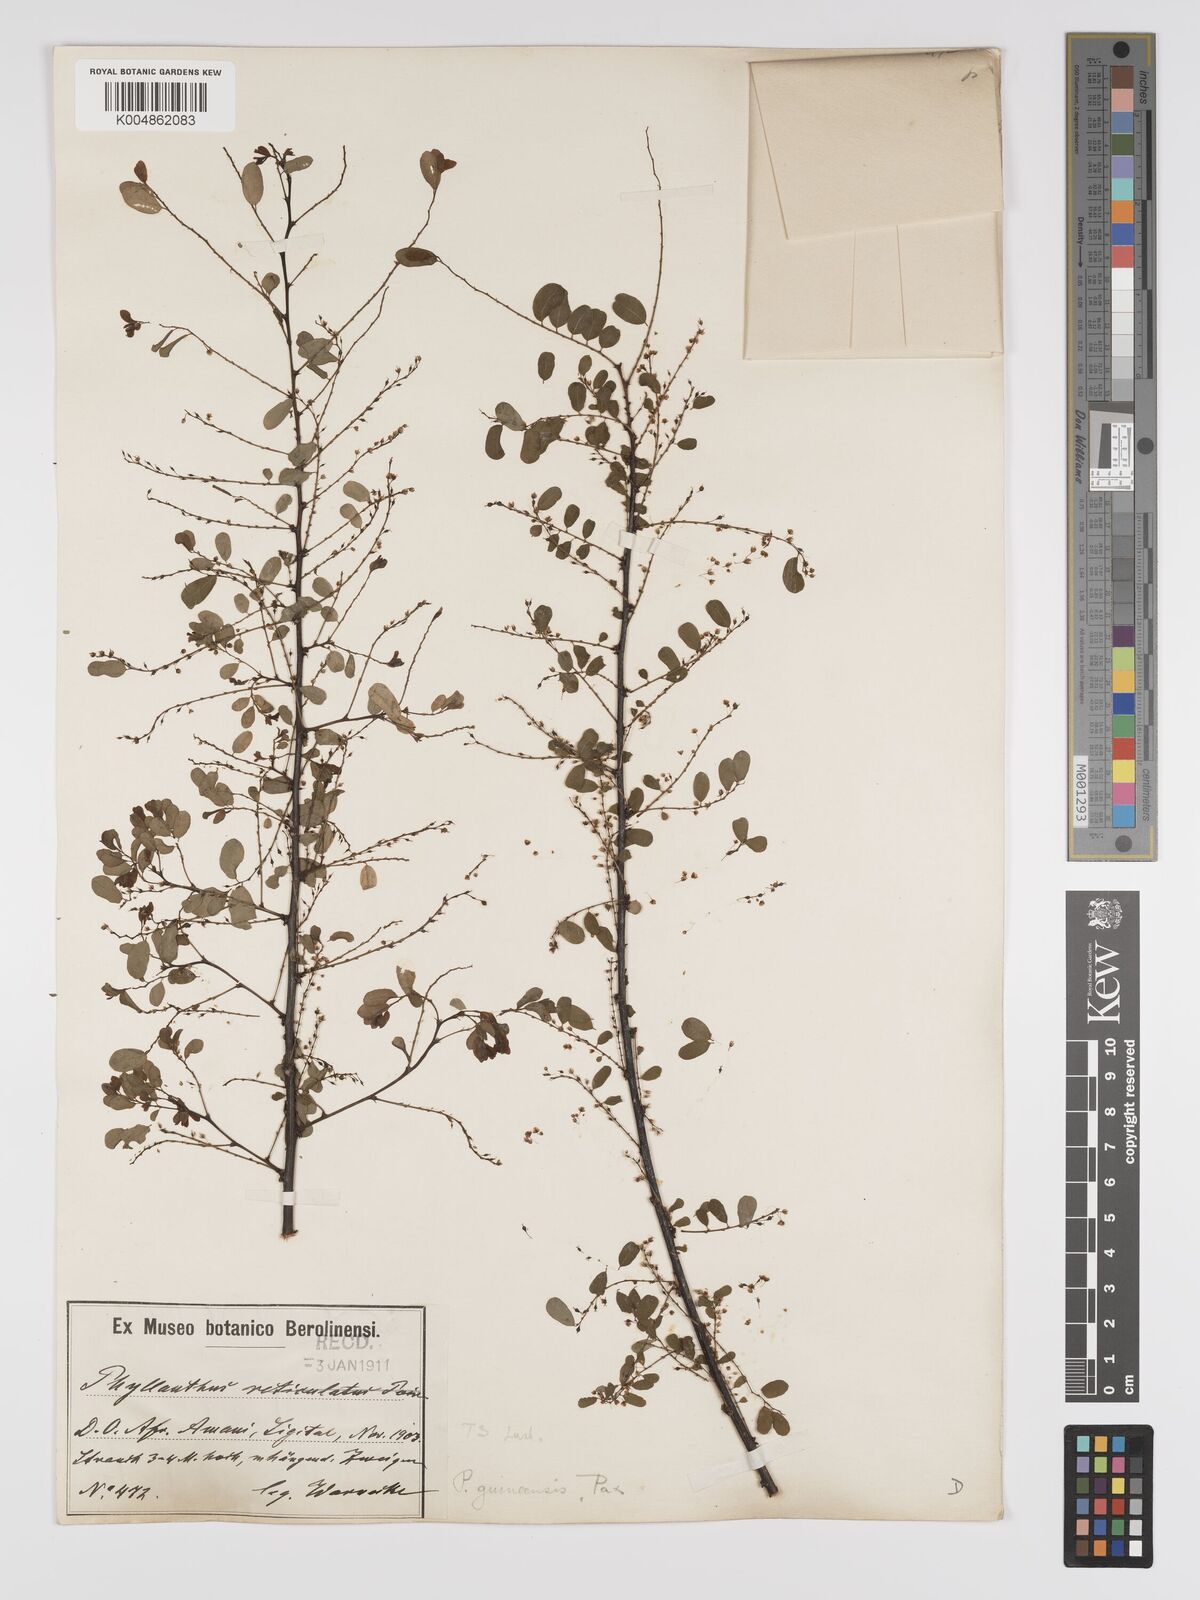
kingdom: Plantae
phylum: Tracheophyta
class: Magnoliopsida
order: Malpighiales
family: Phyllanthaceae
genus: Phyllanthus
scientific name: Phyllanthus ovalifolius
